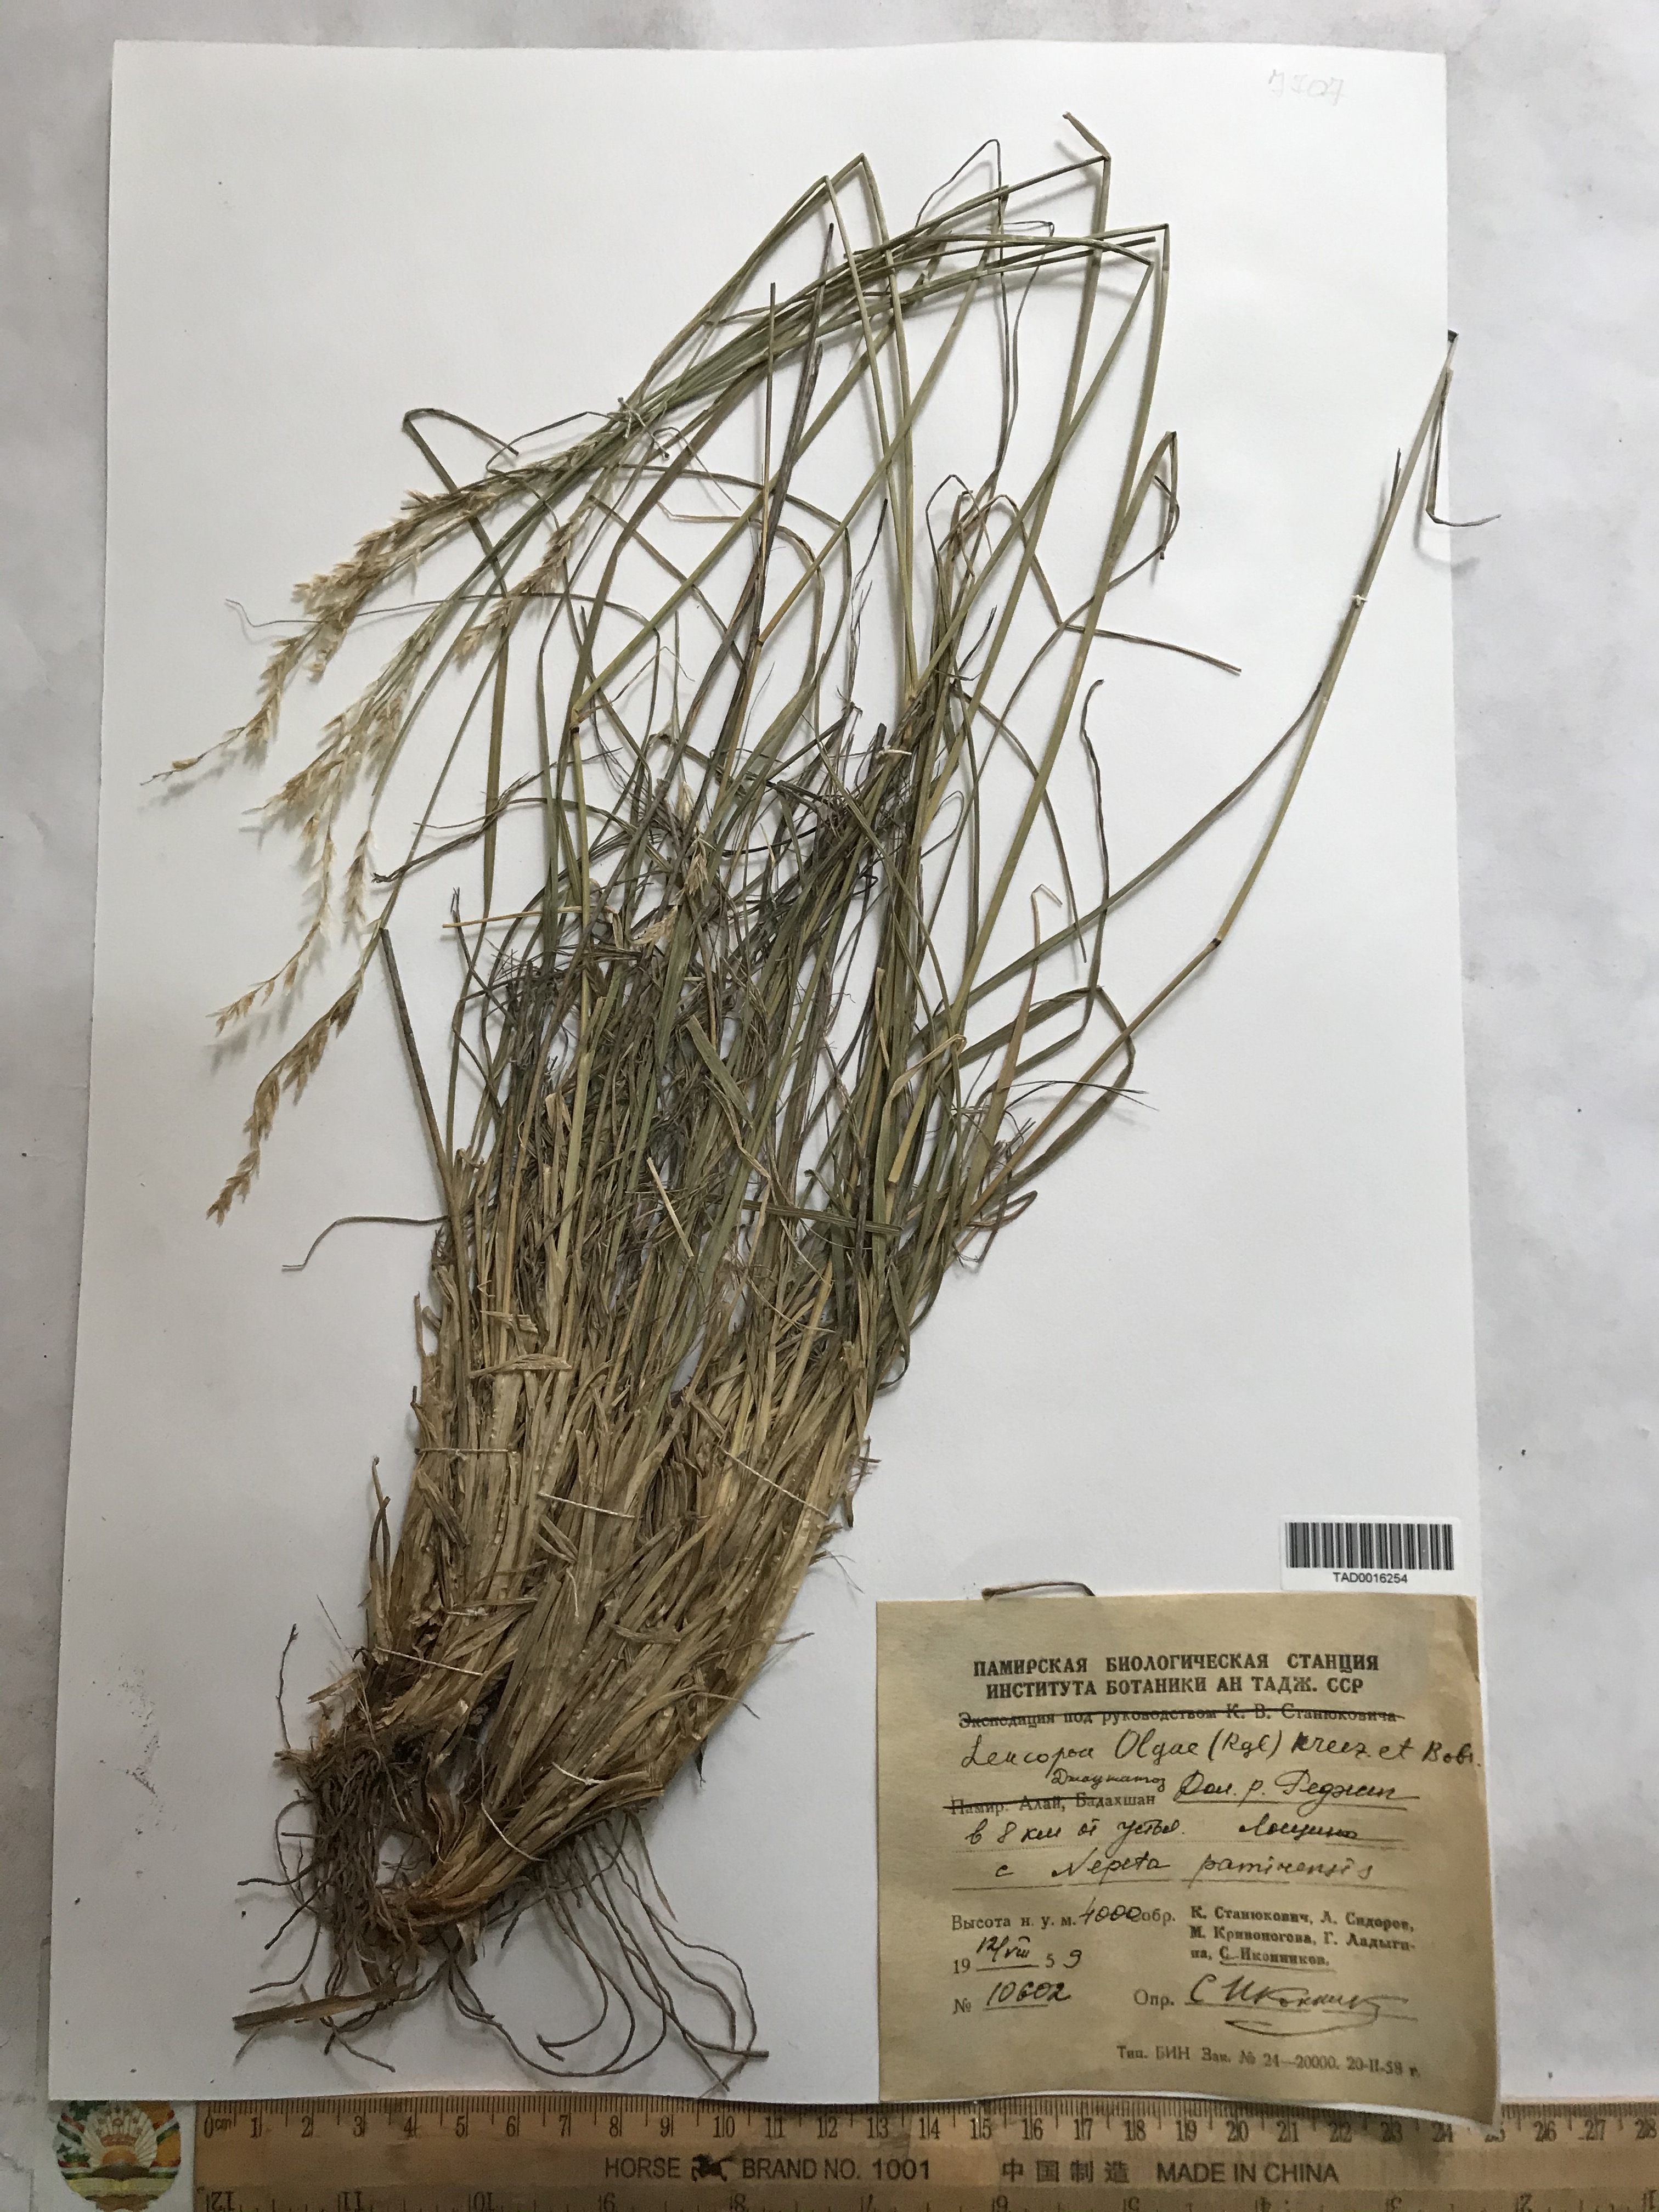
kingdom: Plantae
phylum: Tracheophyta
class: Liliopsida
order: Poales
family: Poaceae
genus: Festuca
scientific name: Festuca
